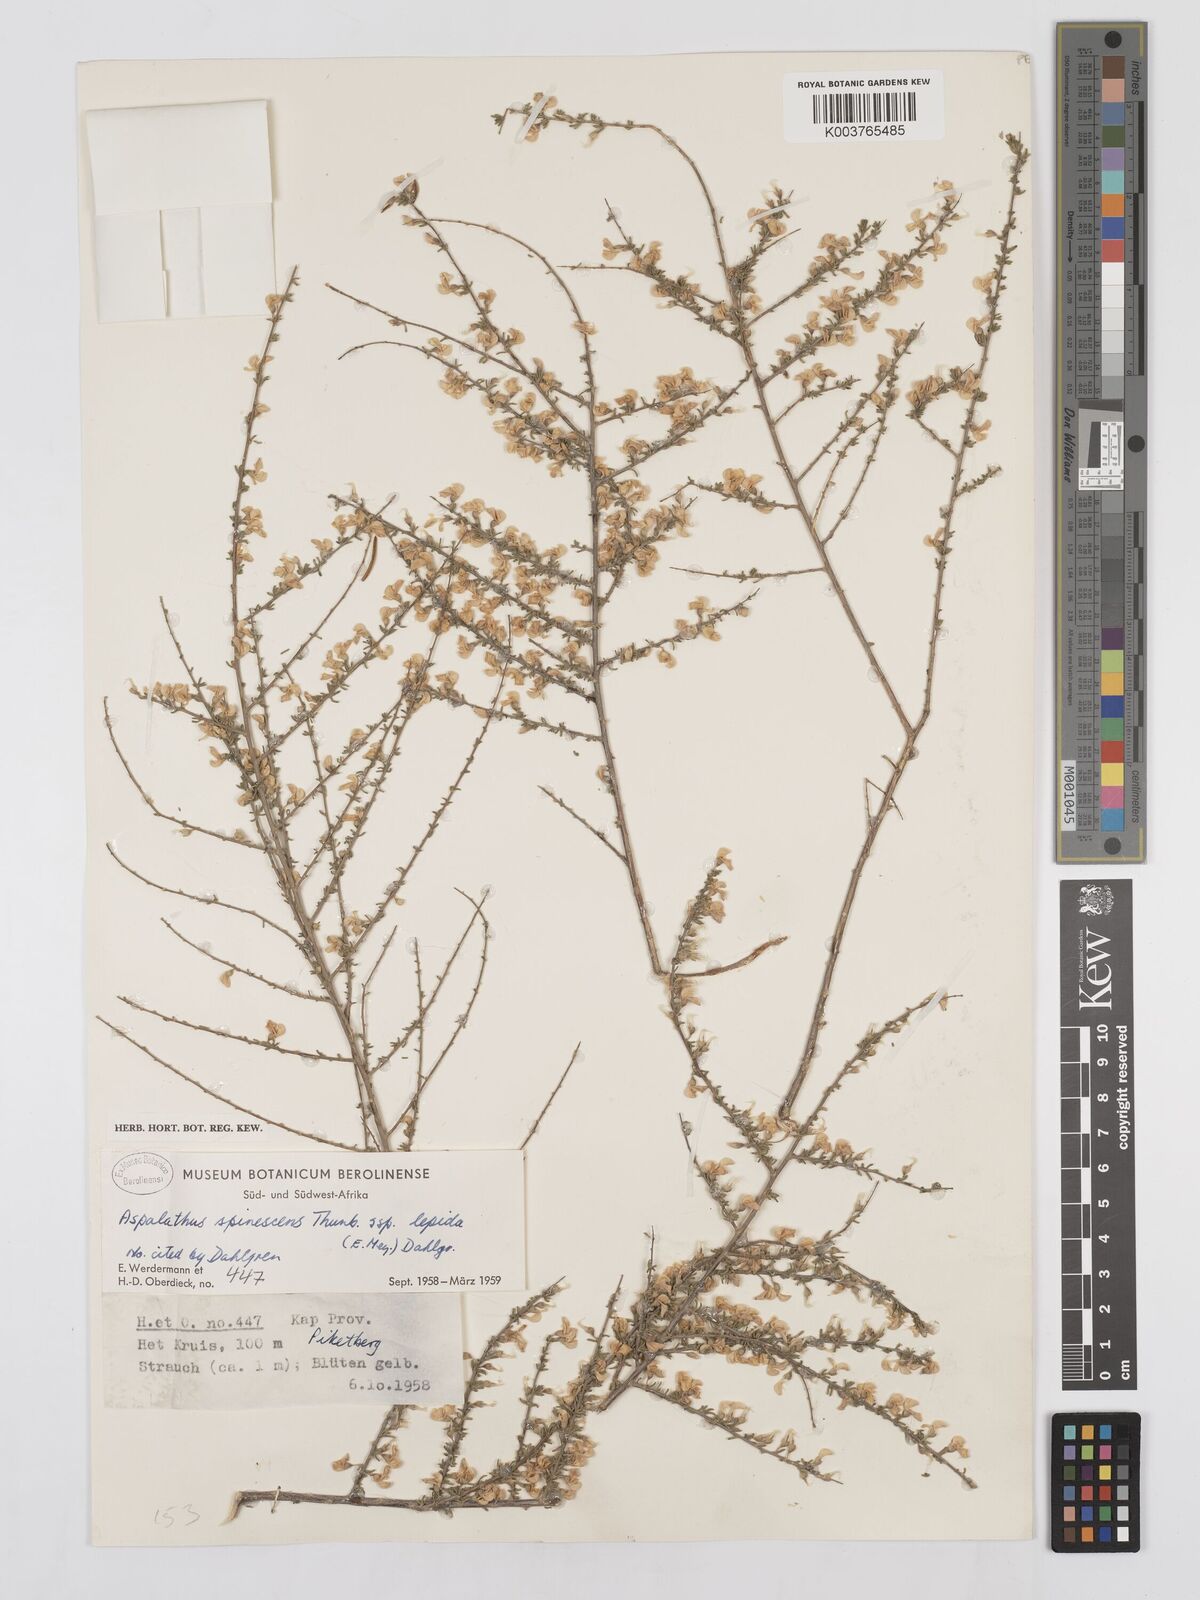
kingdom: Plantae
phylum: Tracheophyta
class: Magnoliopsida
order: Fabales
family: Fabaceae
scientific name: Fabaceae
